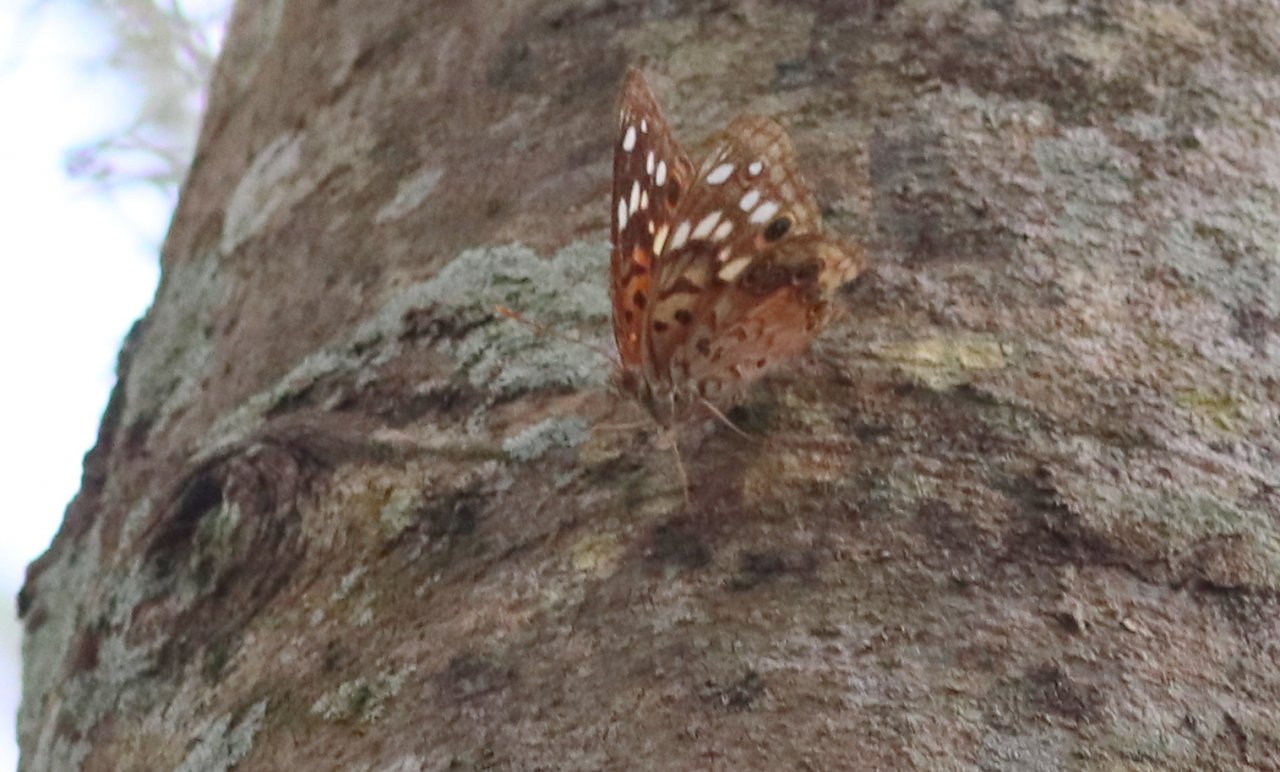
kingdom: Animalia
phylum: Arthropoda
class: Insecta
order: Lepidoptera
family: Nymphalidae
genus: Asterocampa
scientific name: Asterocampa celtis
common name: Hackberry Emperor
